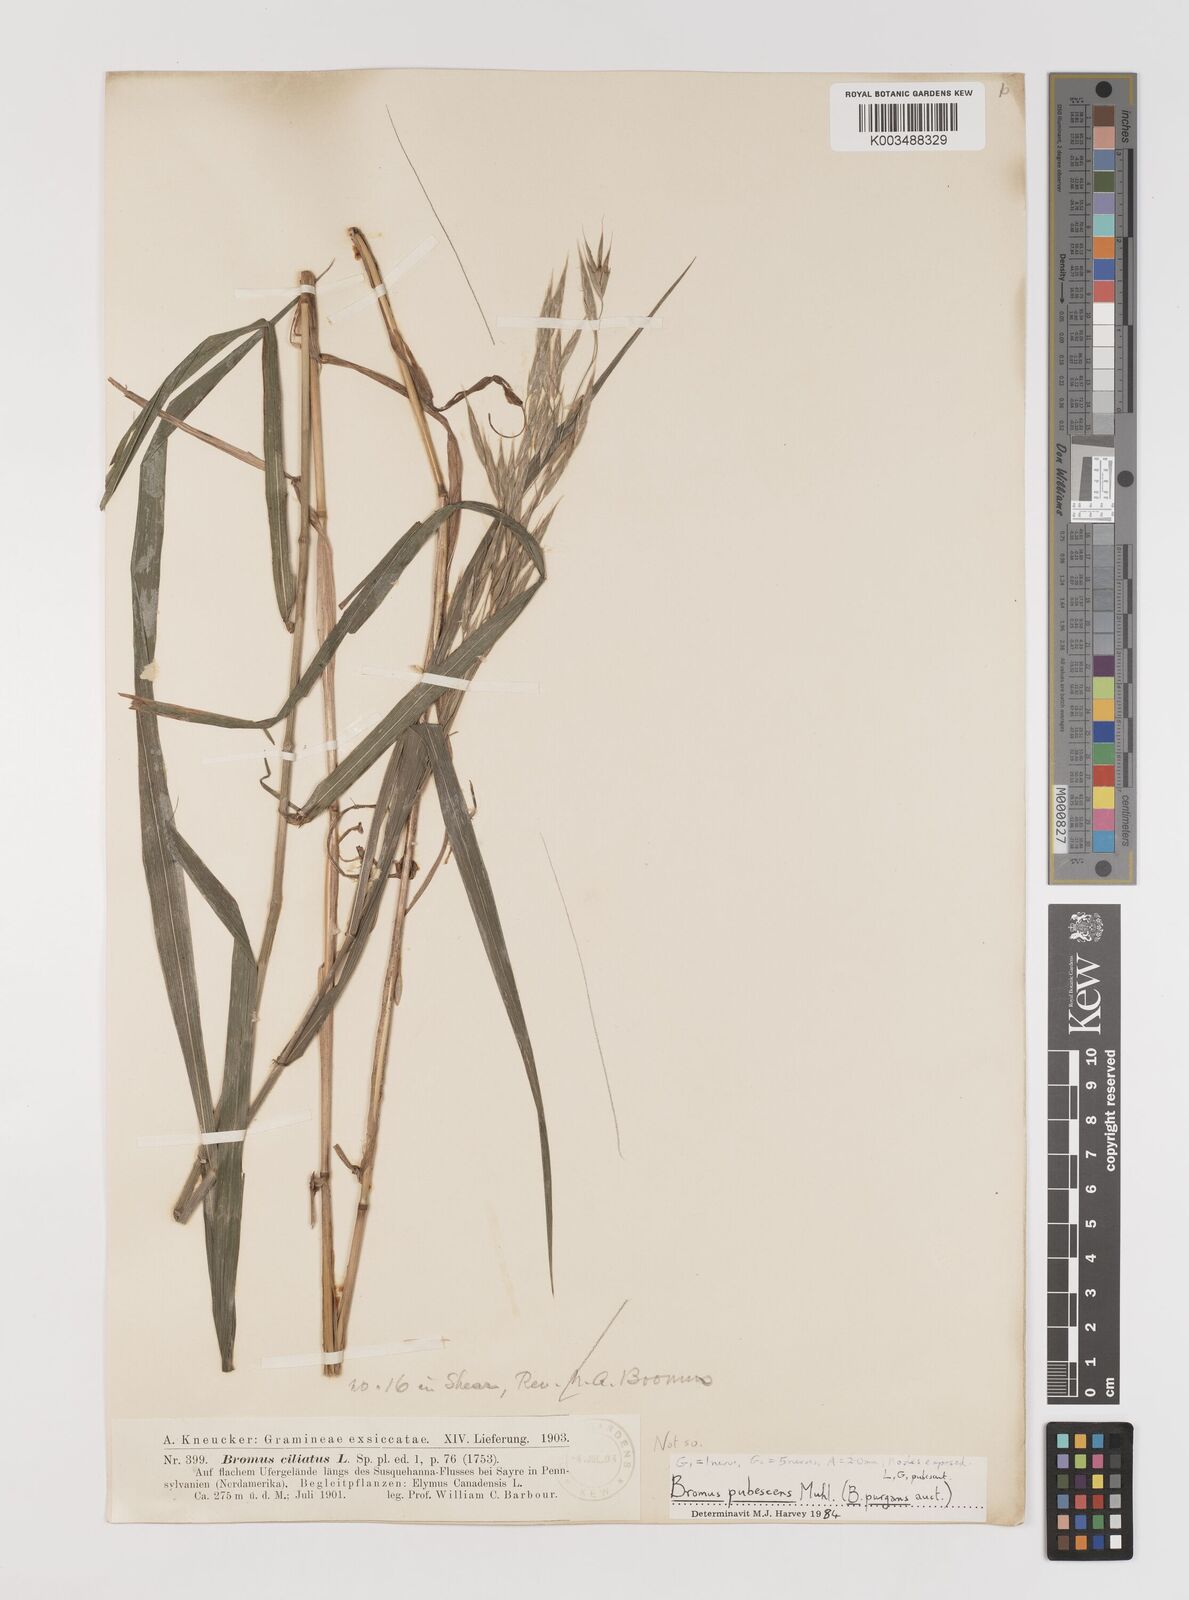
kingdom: Plantae
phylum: Tracheophyta
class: Liliopsida
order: Poales
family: Poaceae
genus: Bromus
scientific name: Bromus pubescens
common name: Hairy wood brome grass
